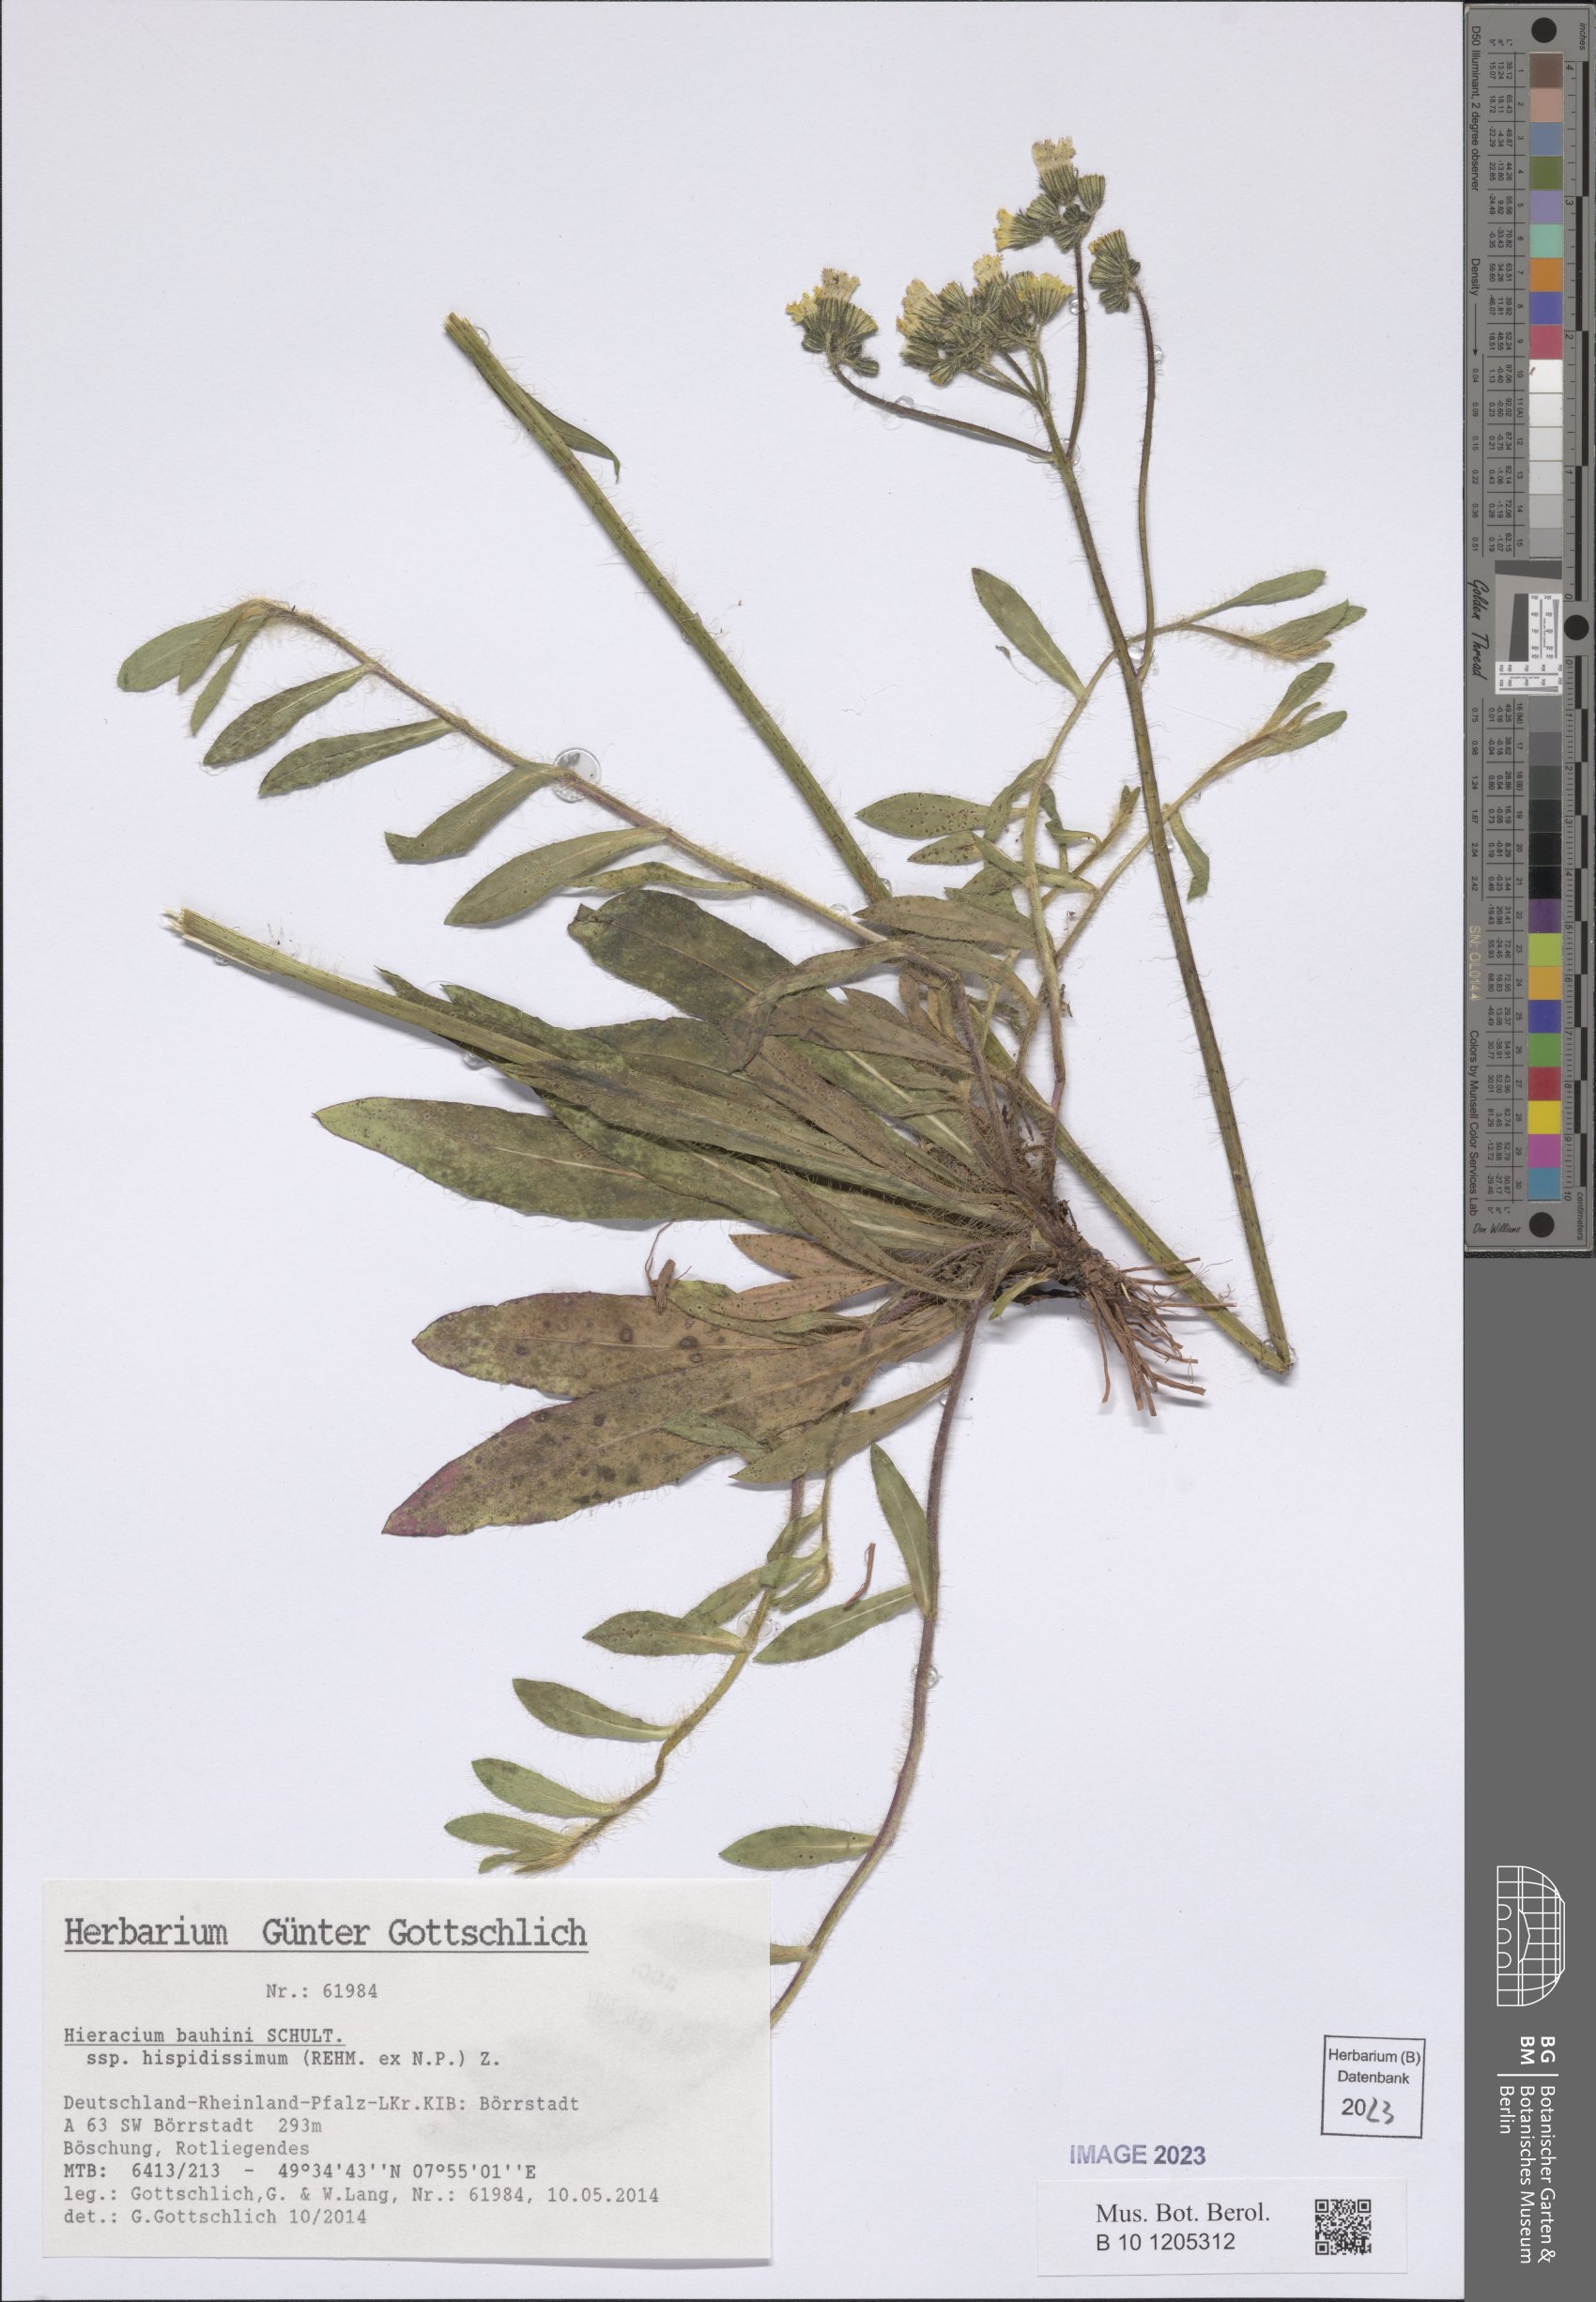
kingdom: Plantae
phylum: Tracheophyta
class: Magnoliopsida
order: Asterales
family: Asteraceae
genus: Pilosella
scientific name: Pilosella bauhini
